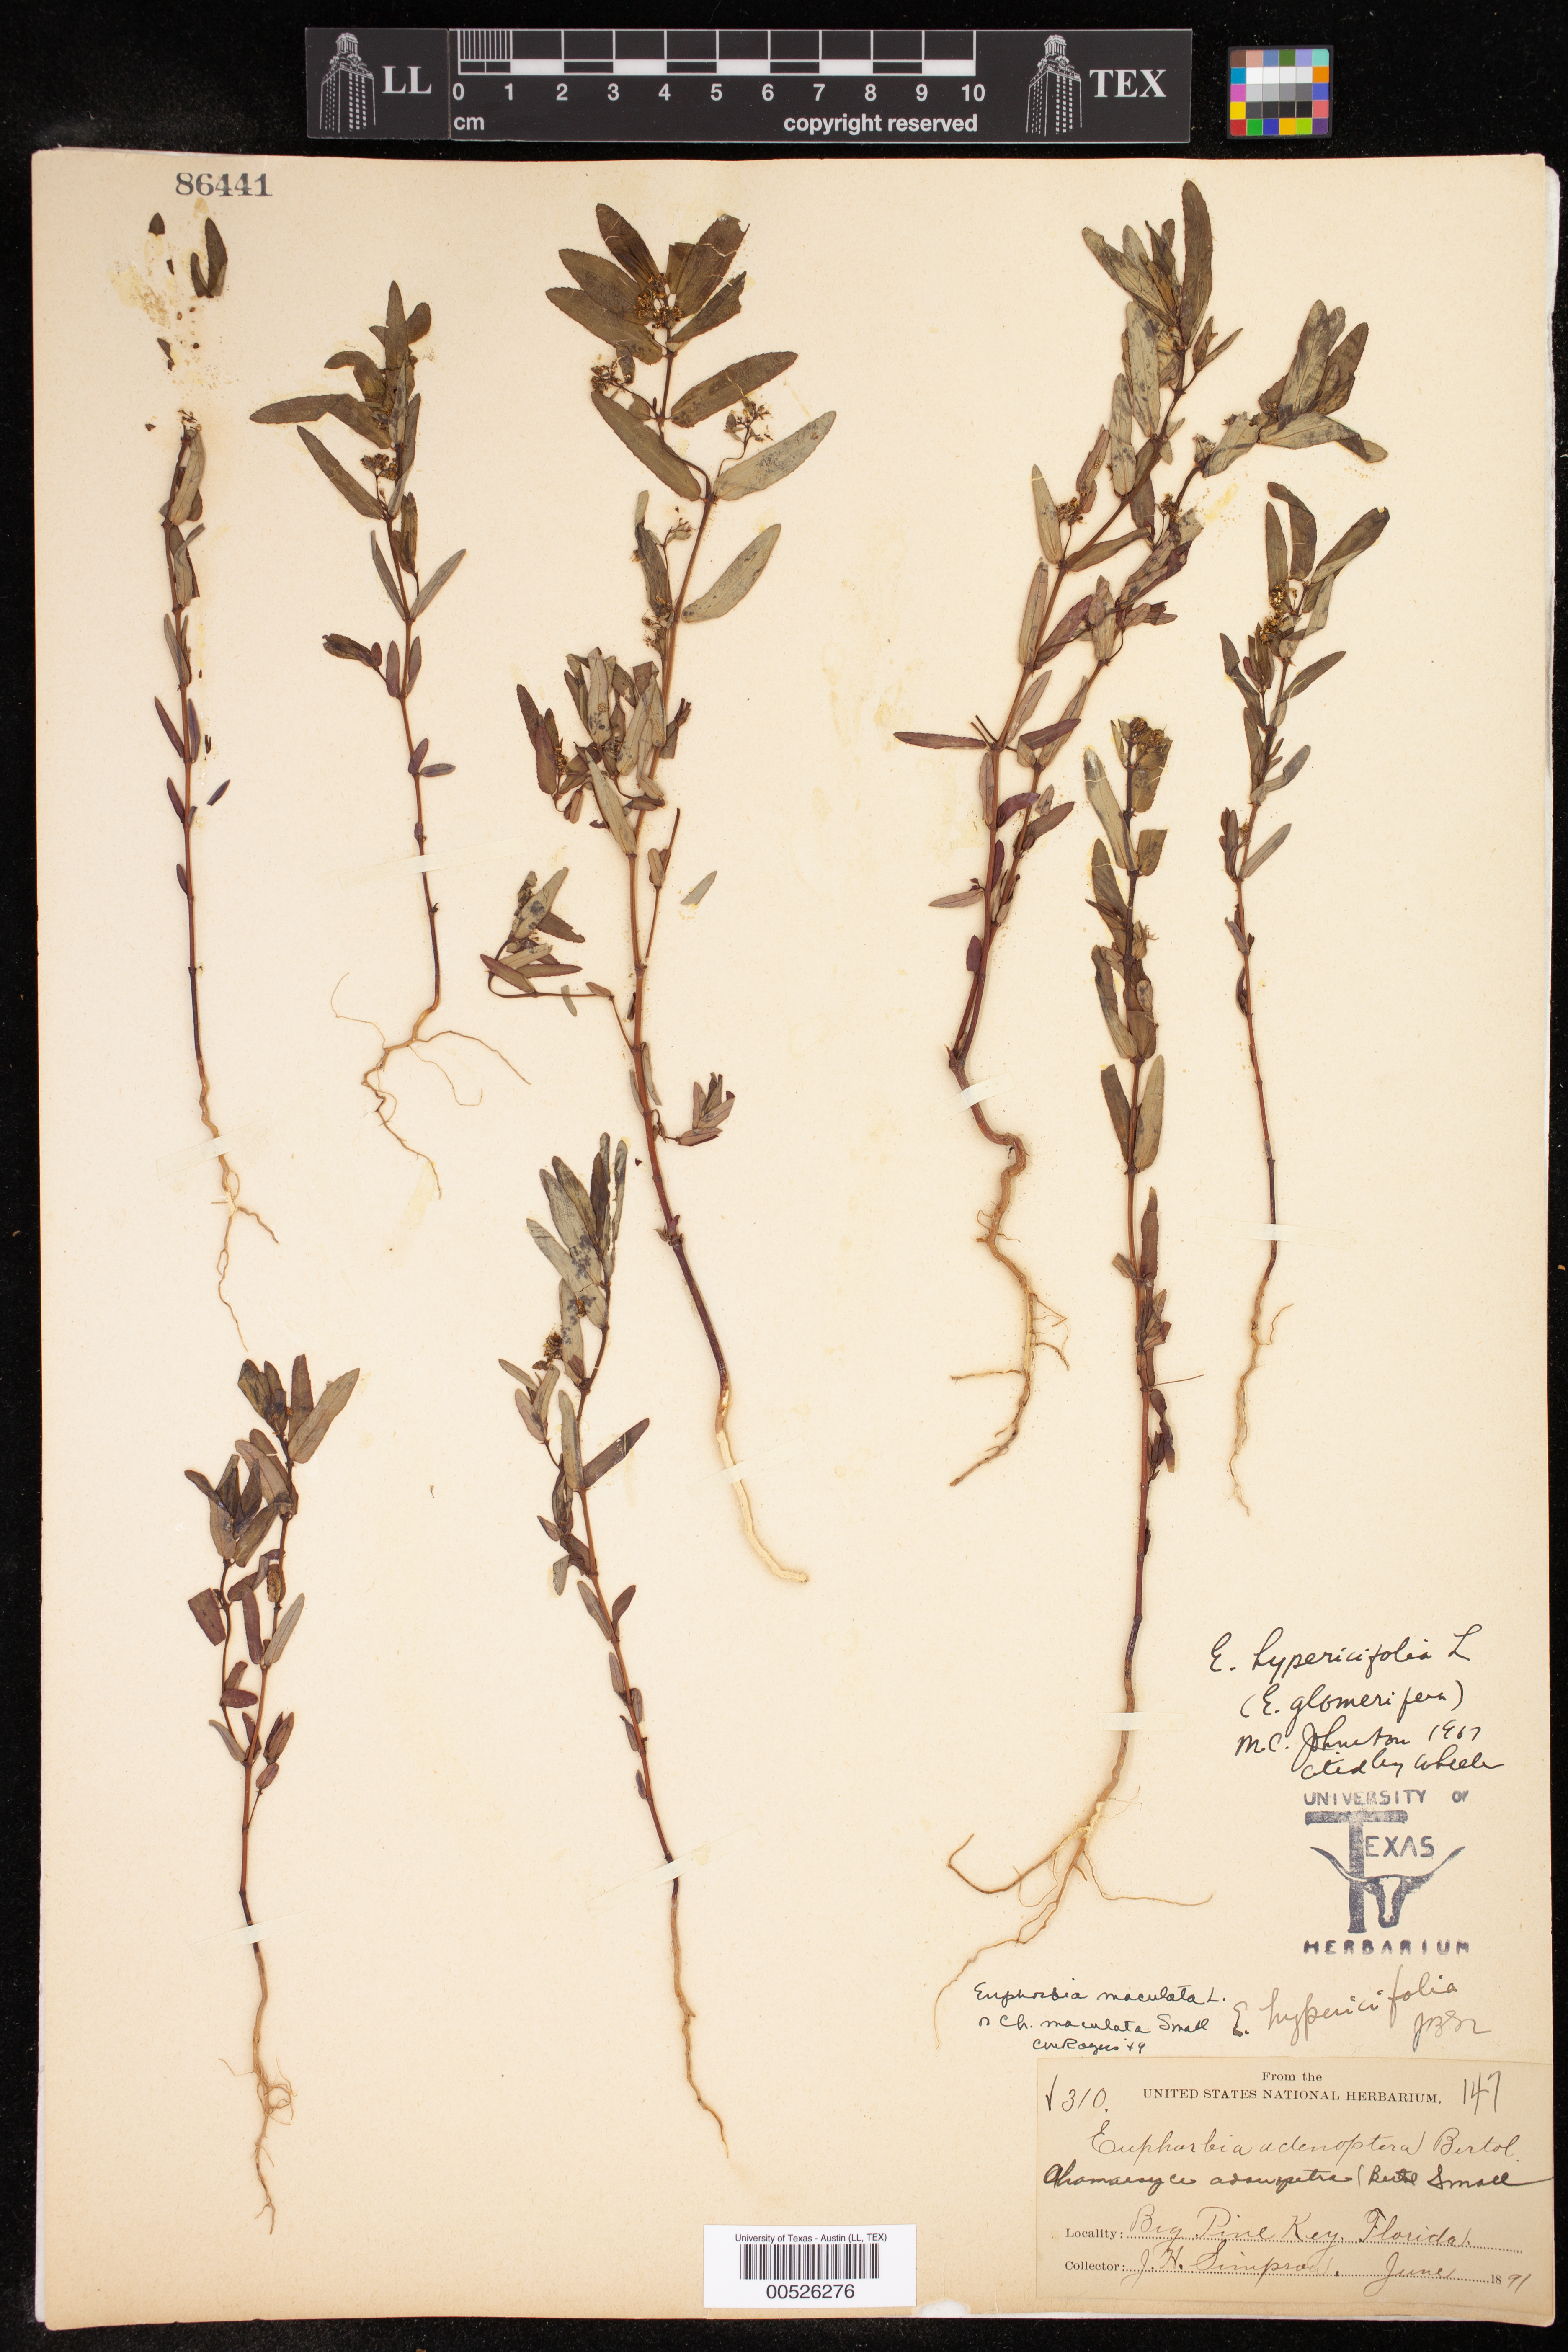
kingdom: Plantae
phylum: Tracheophyta
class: Magnoliopsida
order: Malpighiales
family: Euphorbiaceae
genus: Euphorbia
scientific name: Euphorbia hypericifolia
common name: Graceful sandmat
